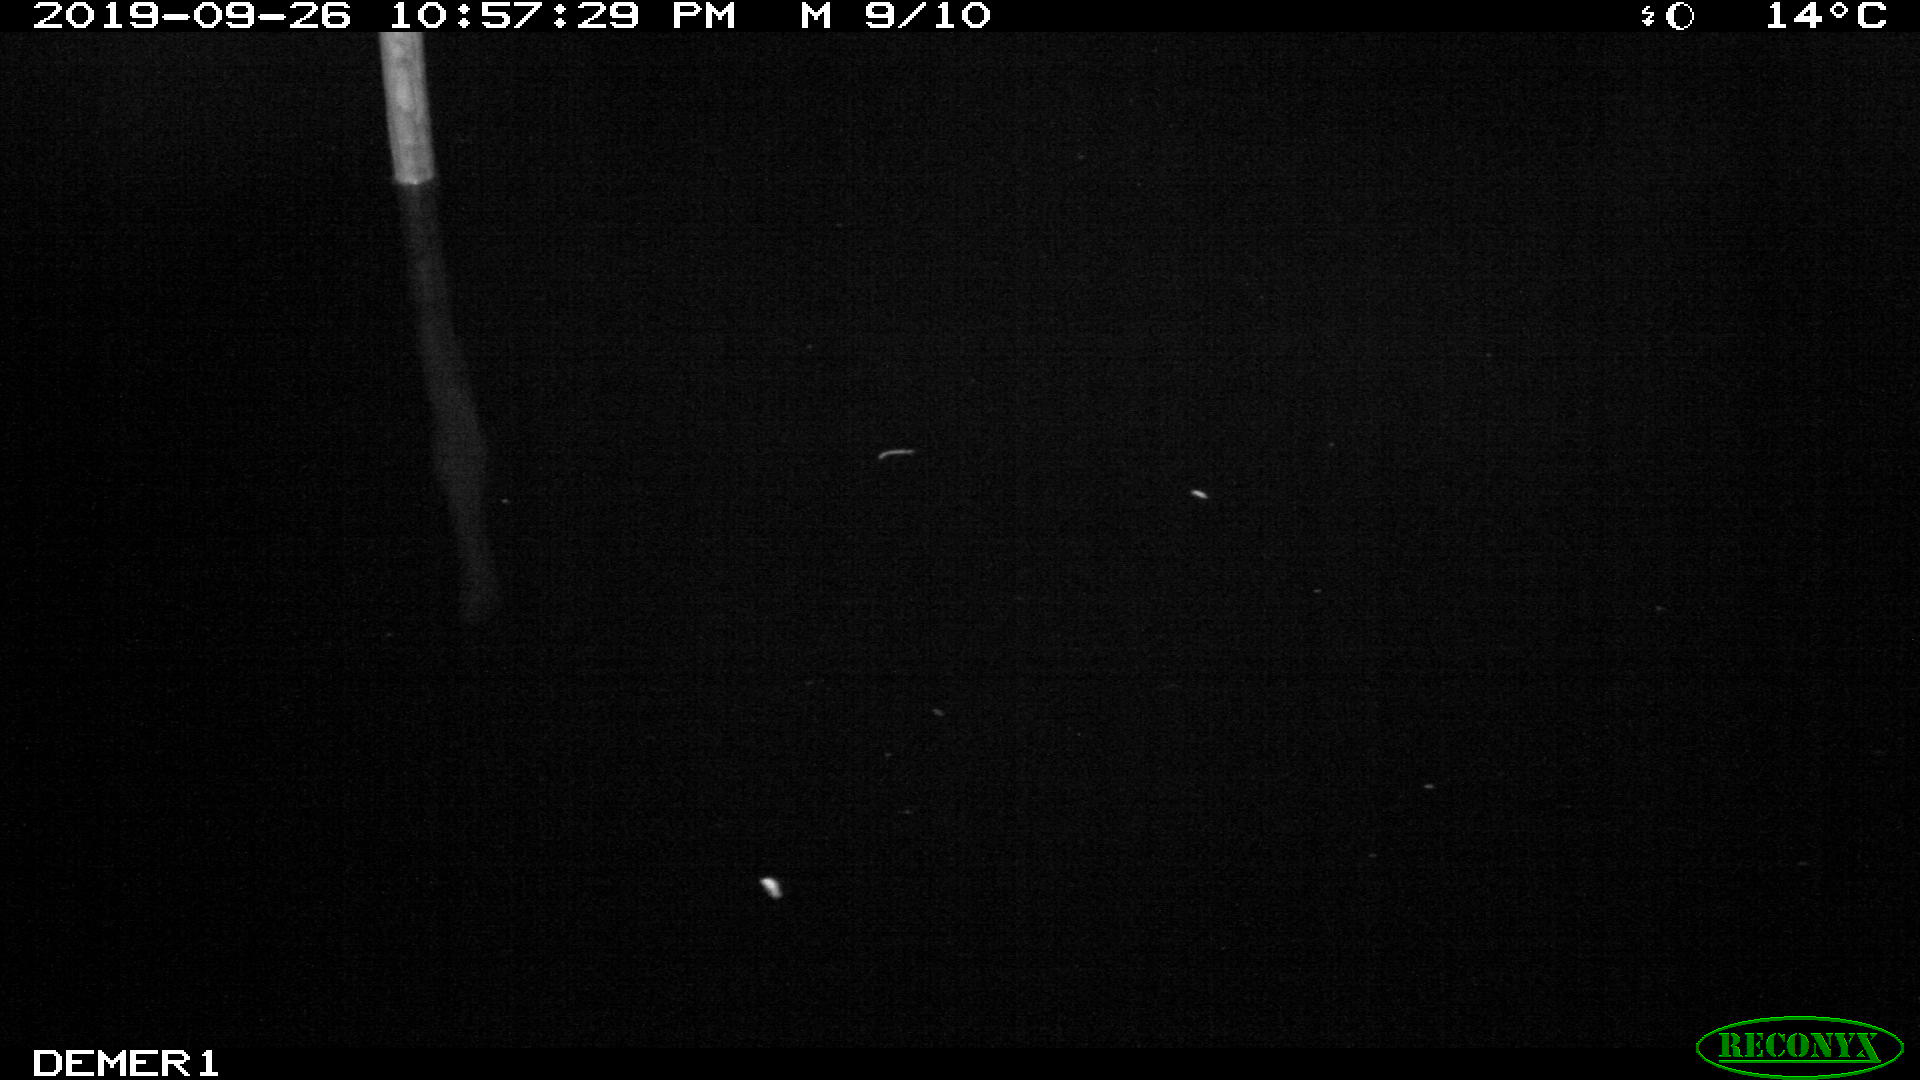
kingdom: Animalia
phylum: Chordata
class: Aves
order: Anseriformes
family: Anatidae
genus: Anas
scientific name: Anas platyrhynchos
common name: Mallard
